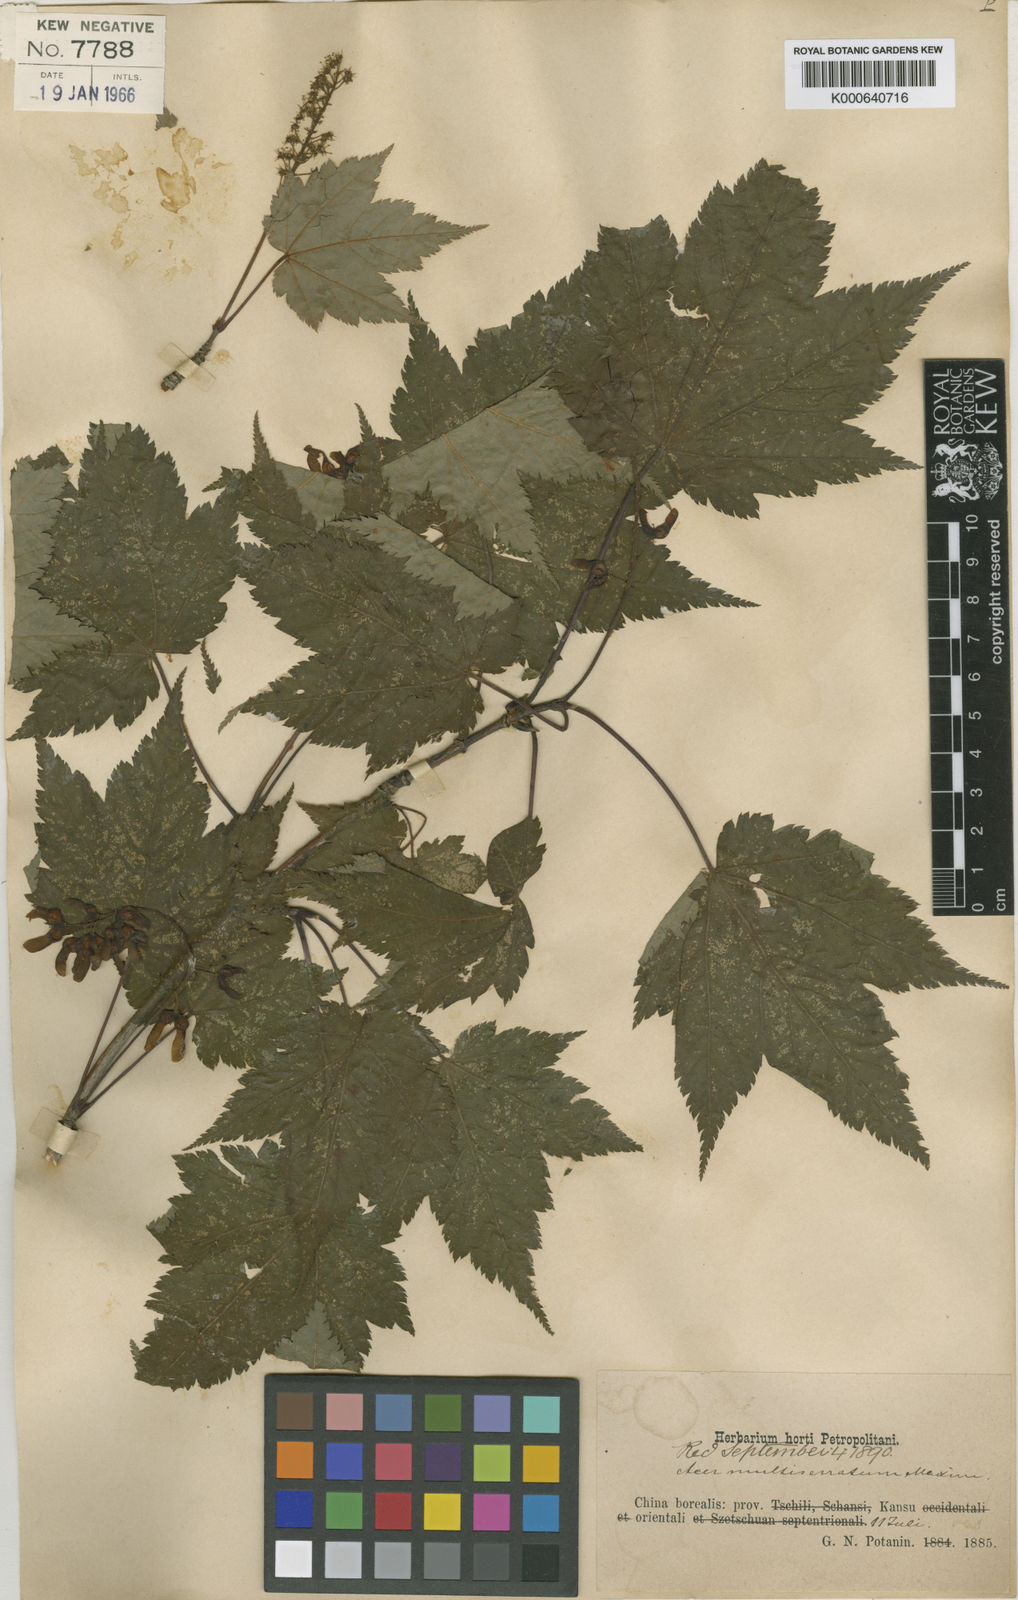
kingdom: Plantae
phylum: Tracheophyta
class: Magnoliopsida
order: Sapindales
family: Sapindaceae
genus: Acer
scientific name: Acer
